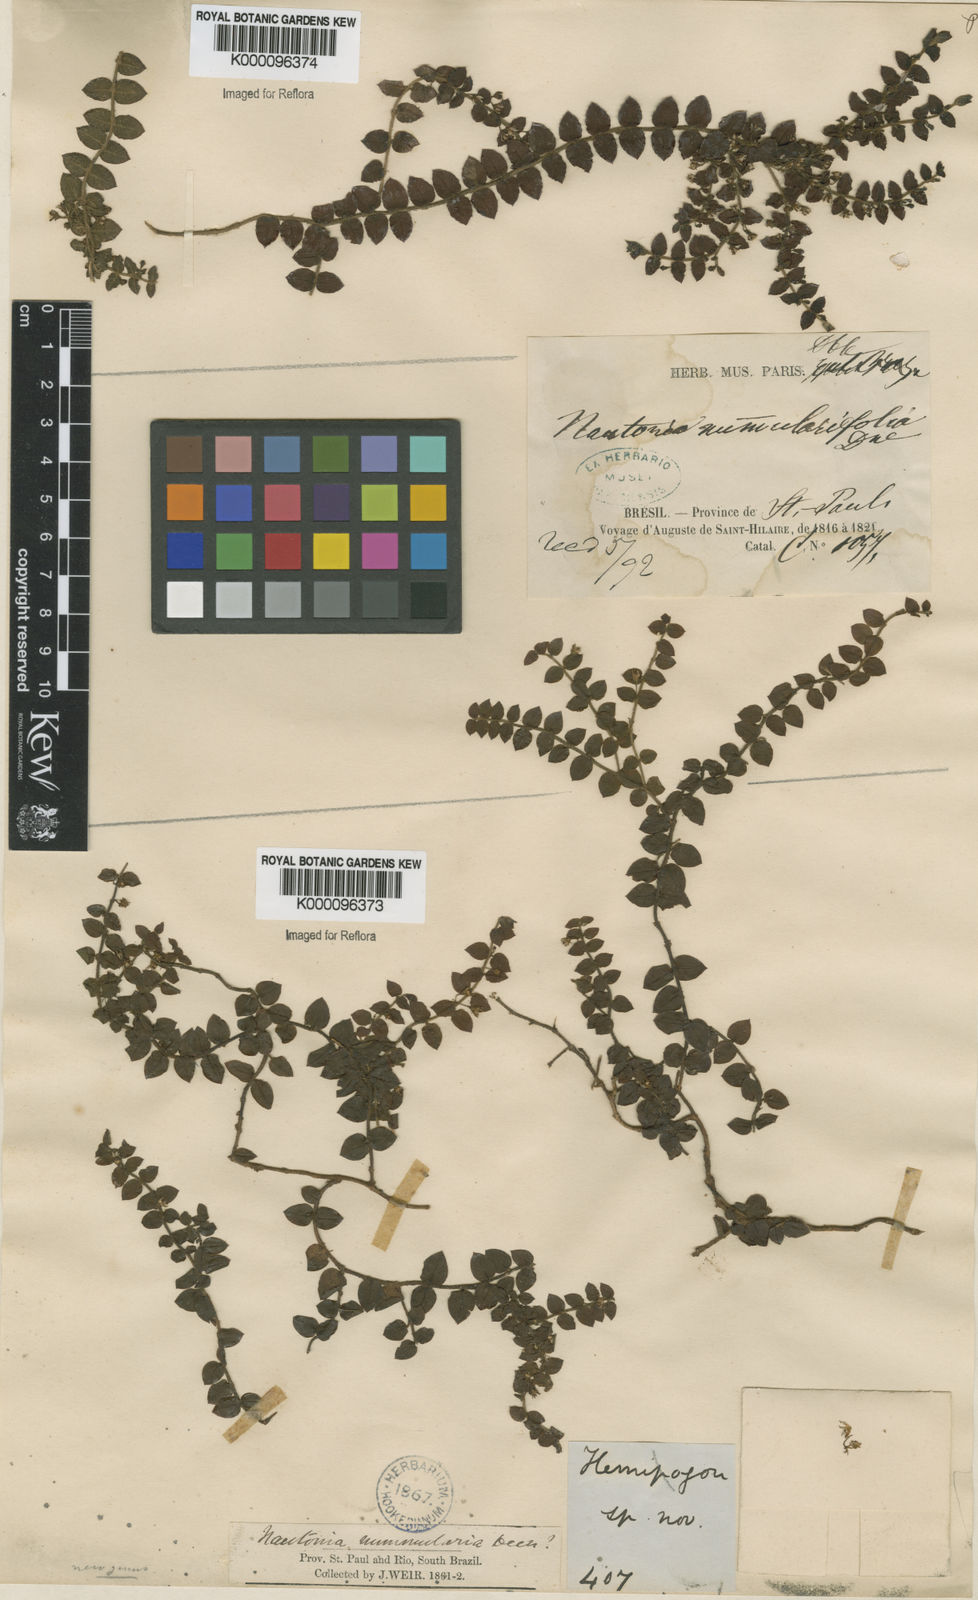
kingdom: Plantae
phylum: Tracheophyta
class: Magnoliopsida
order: Gentianales
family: Apocynaceae
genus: Nautonia
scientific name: Nautonia nummularia
